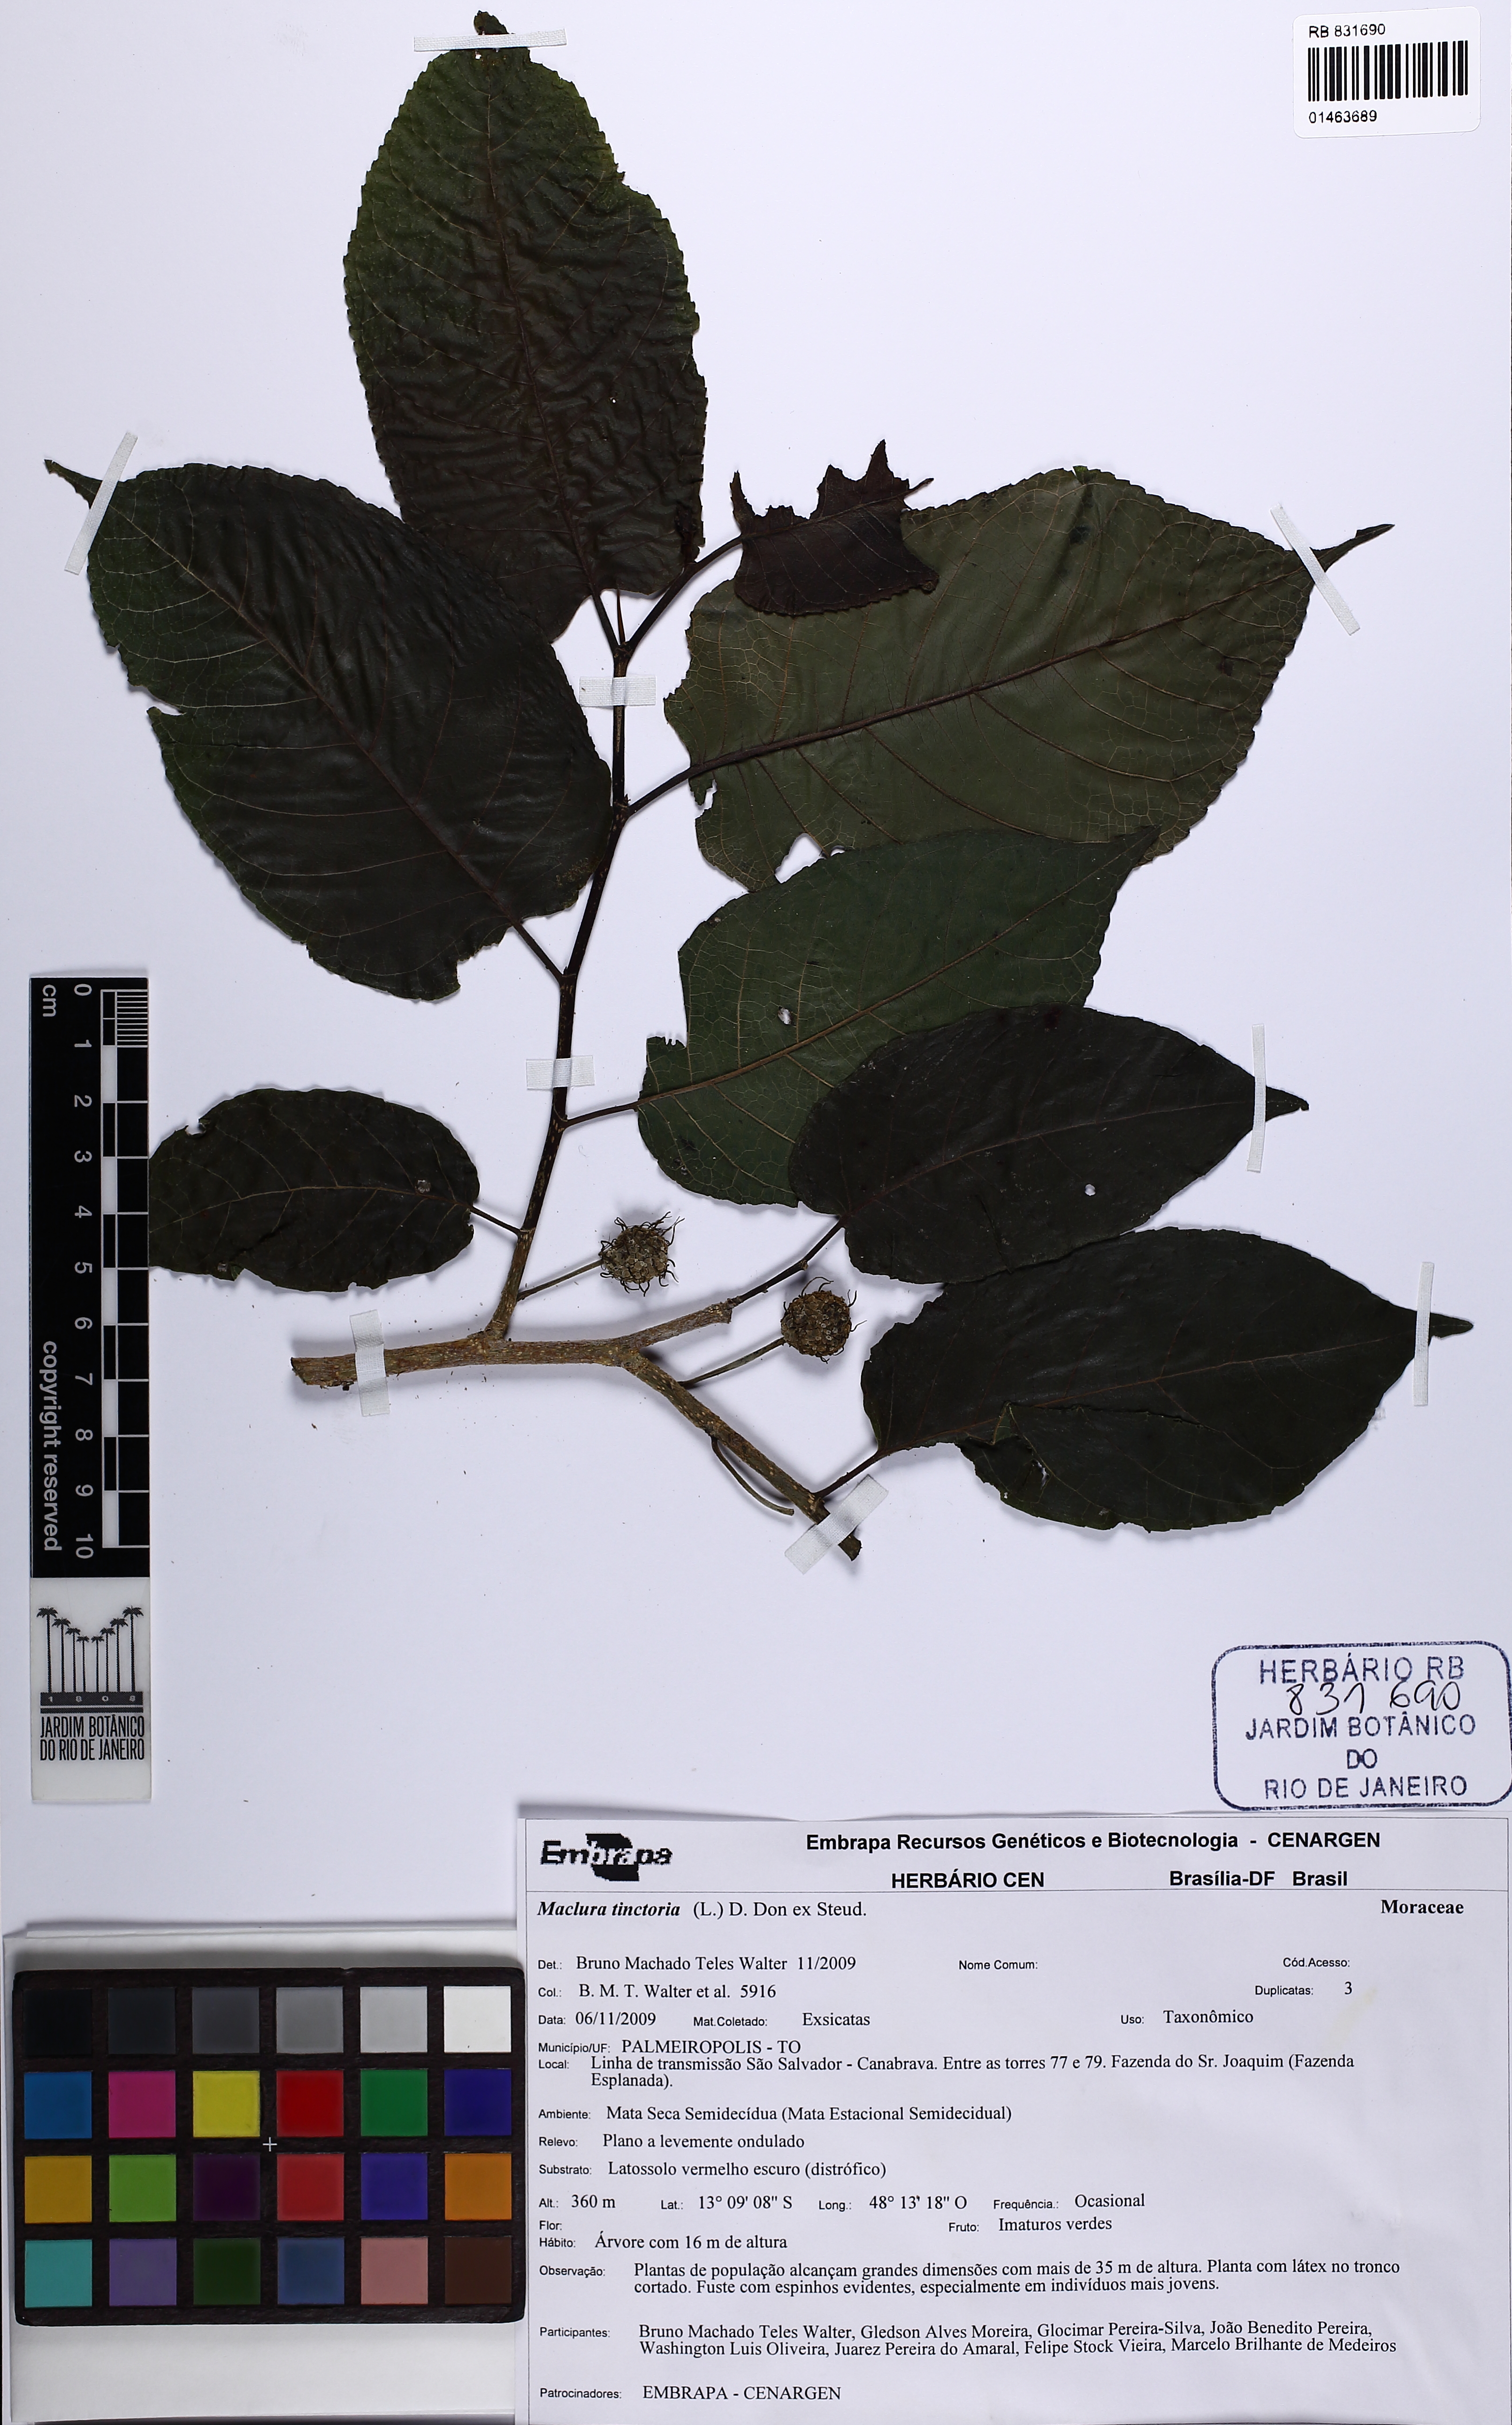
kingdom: Plantae
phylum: Tracheophyta
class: Magnoliopsida
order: Rosales
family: Moraceae
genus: Maclura
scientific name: Maclura tinctoria
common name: Old fustic
